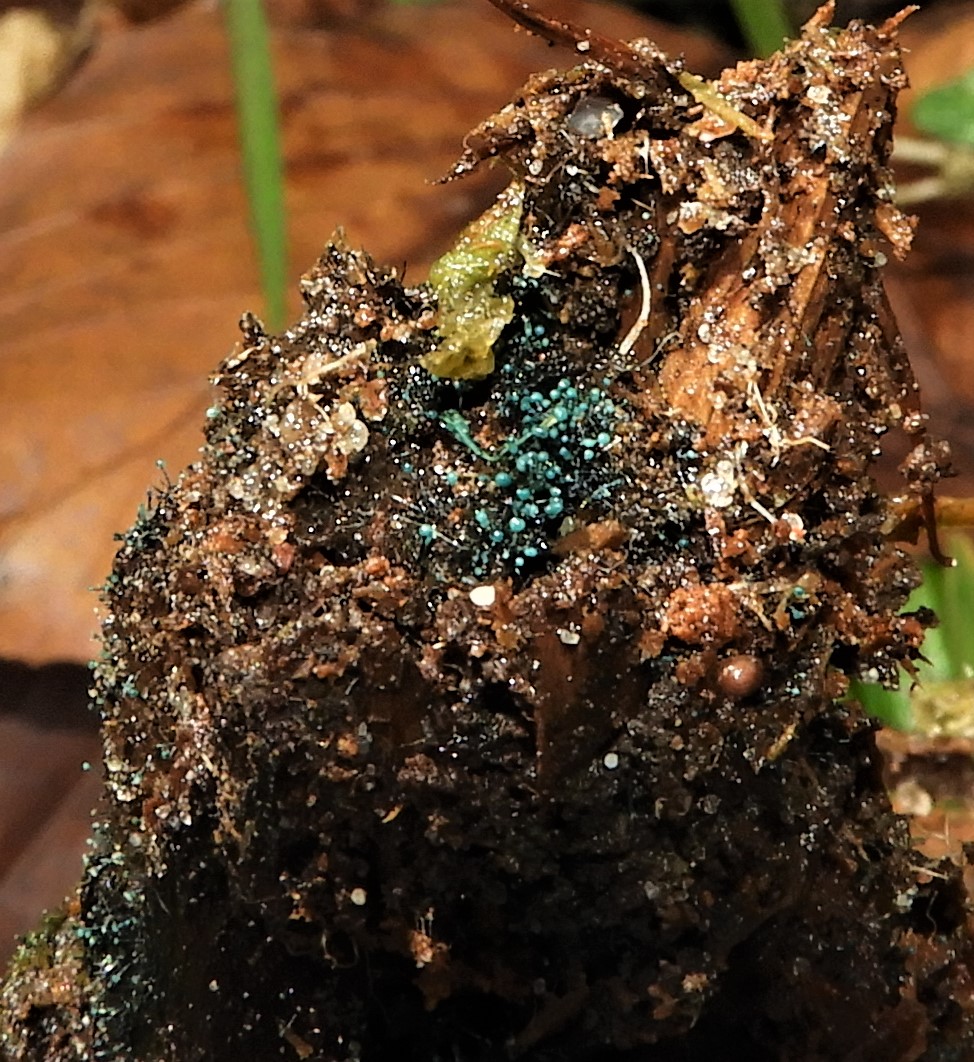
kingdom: Fungi
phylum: Ascomycota
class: Leotiomycetes
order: Leotiales
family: Tympanidaceae
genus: Dendrostilbella
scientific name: Dendrostilbella smaragdina
